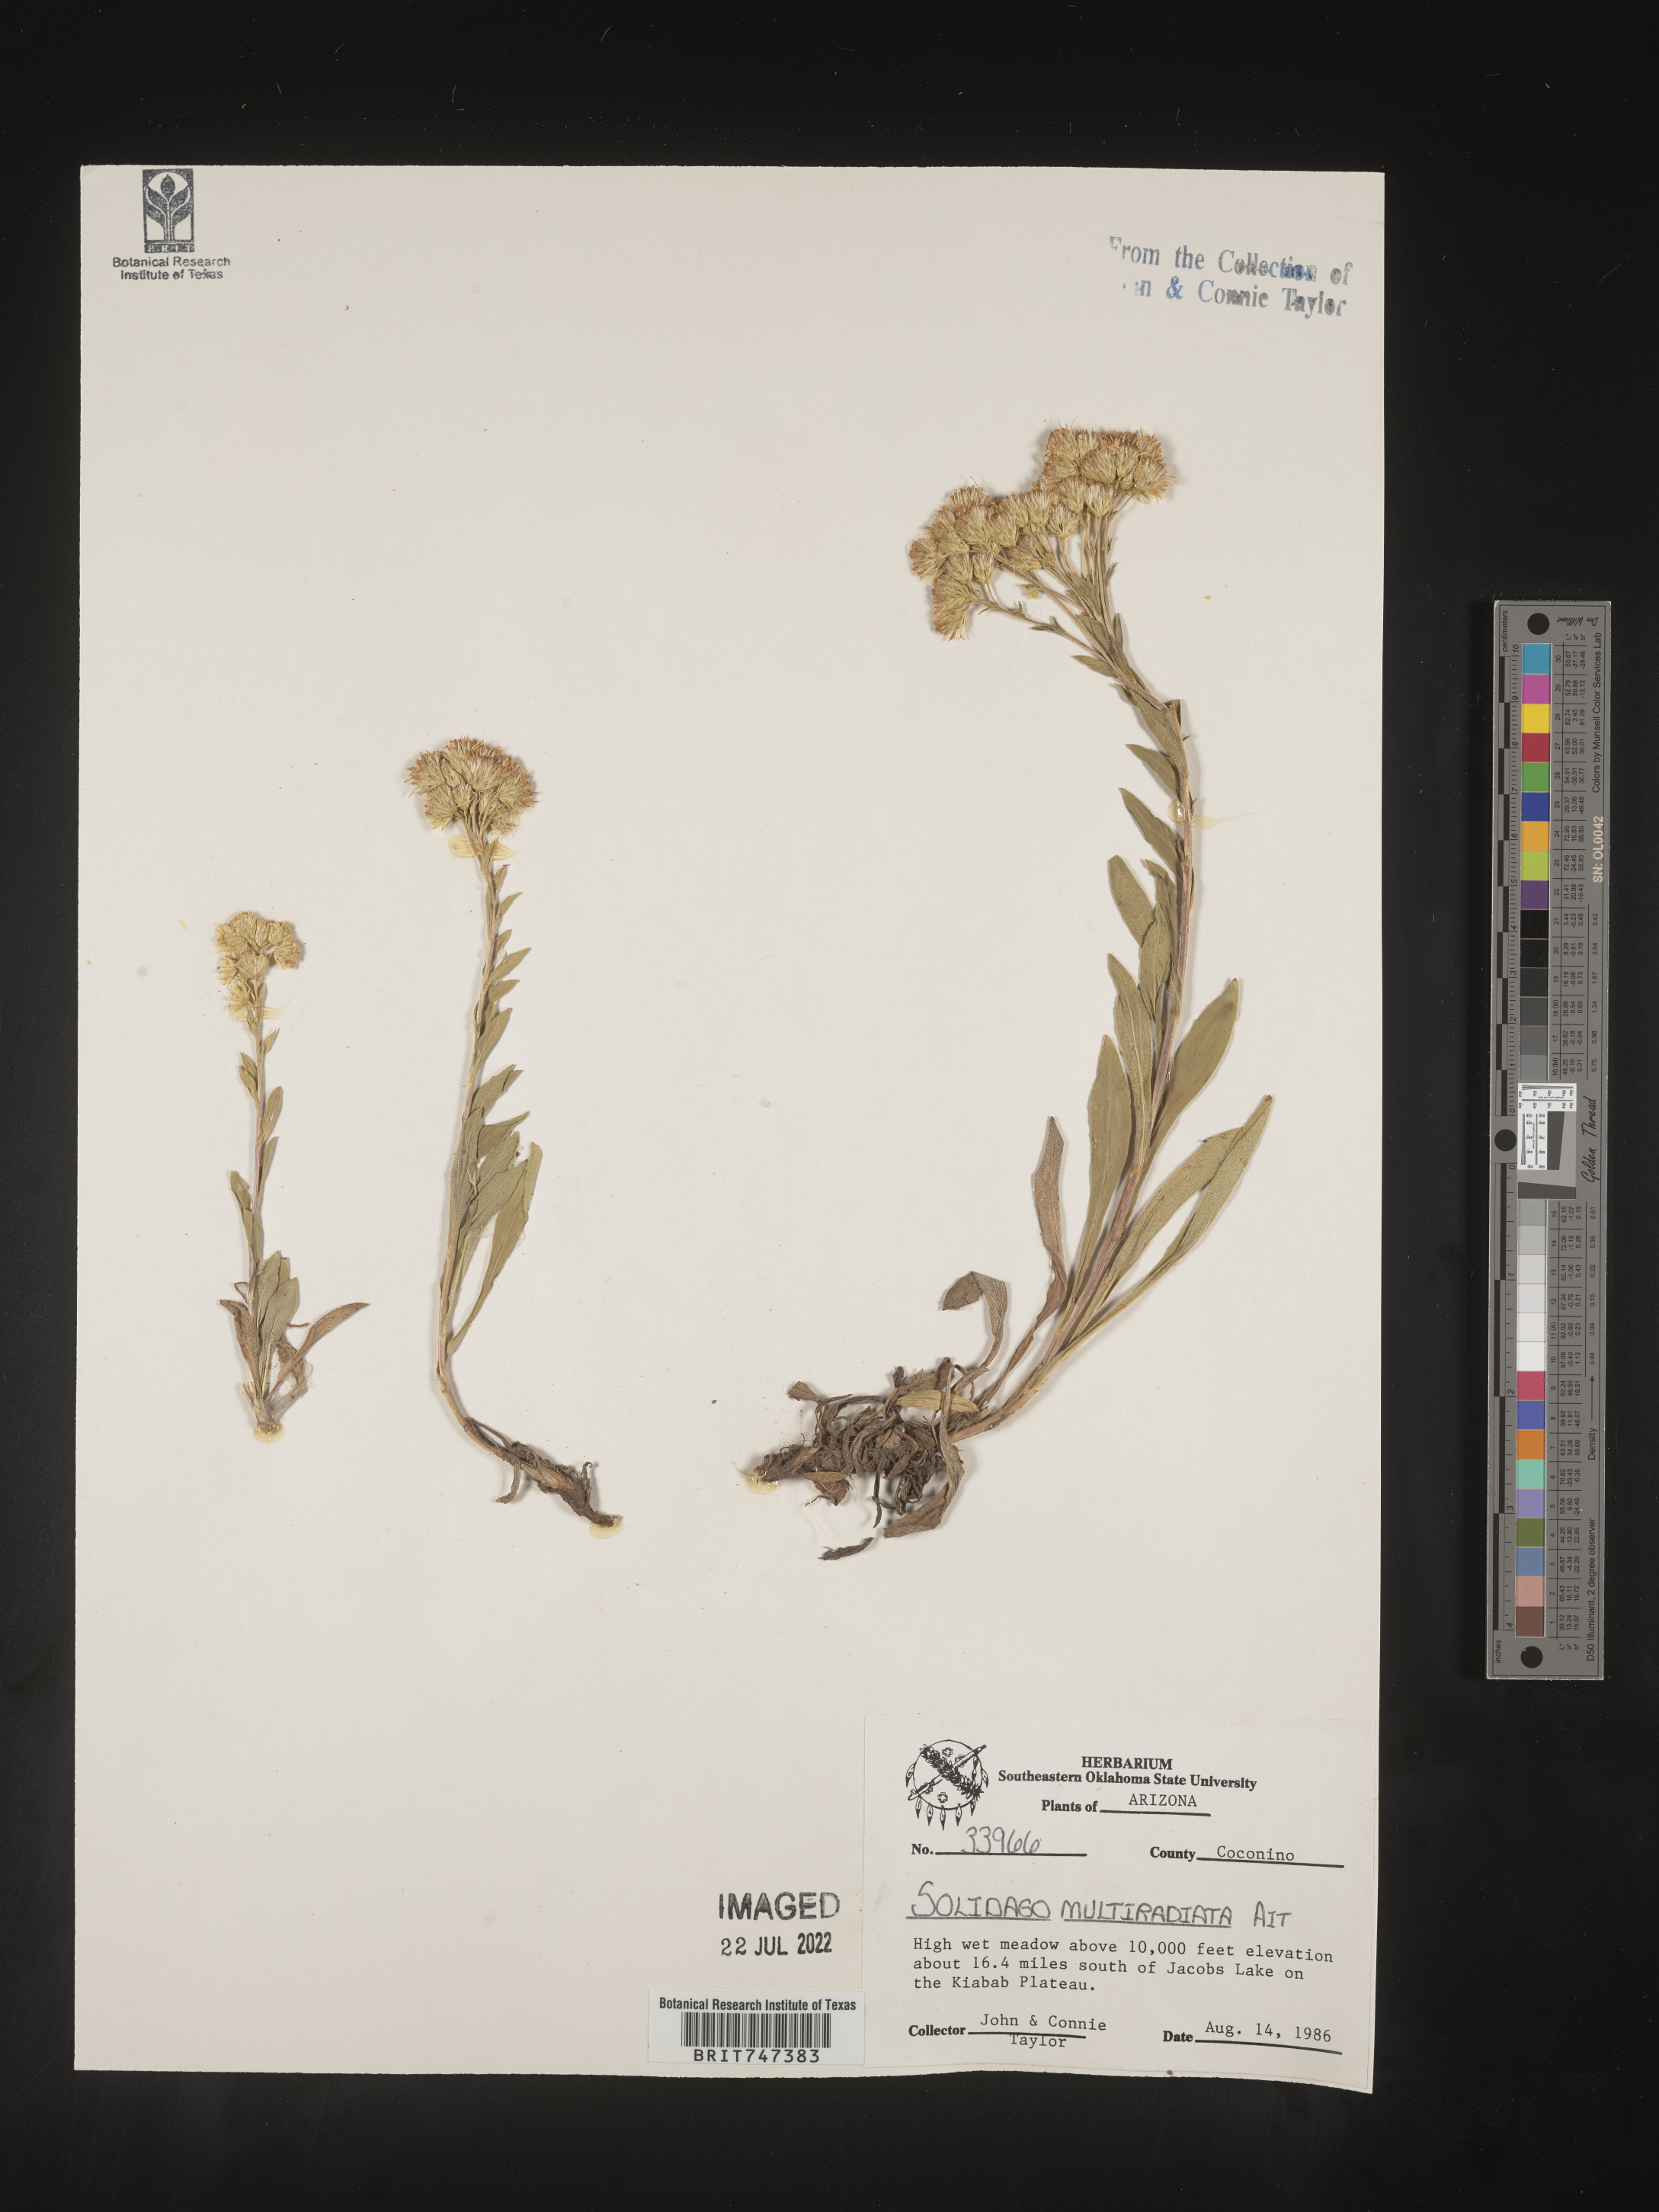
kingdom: Plantae
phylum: Tracheophyta
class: Magnoliopsida
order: Asterales
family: Asteraceae
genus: Solidago
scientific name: Solidago multiradiata
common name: Northern goldenrod
